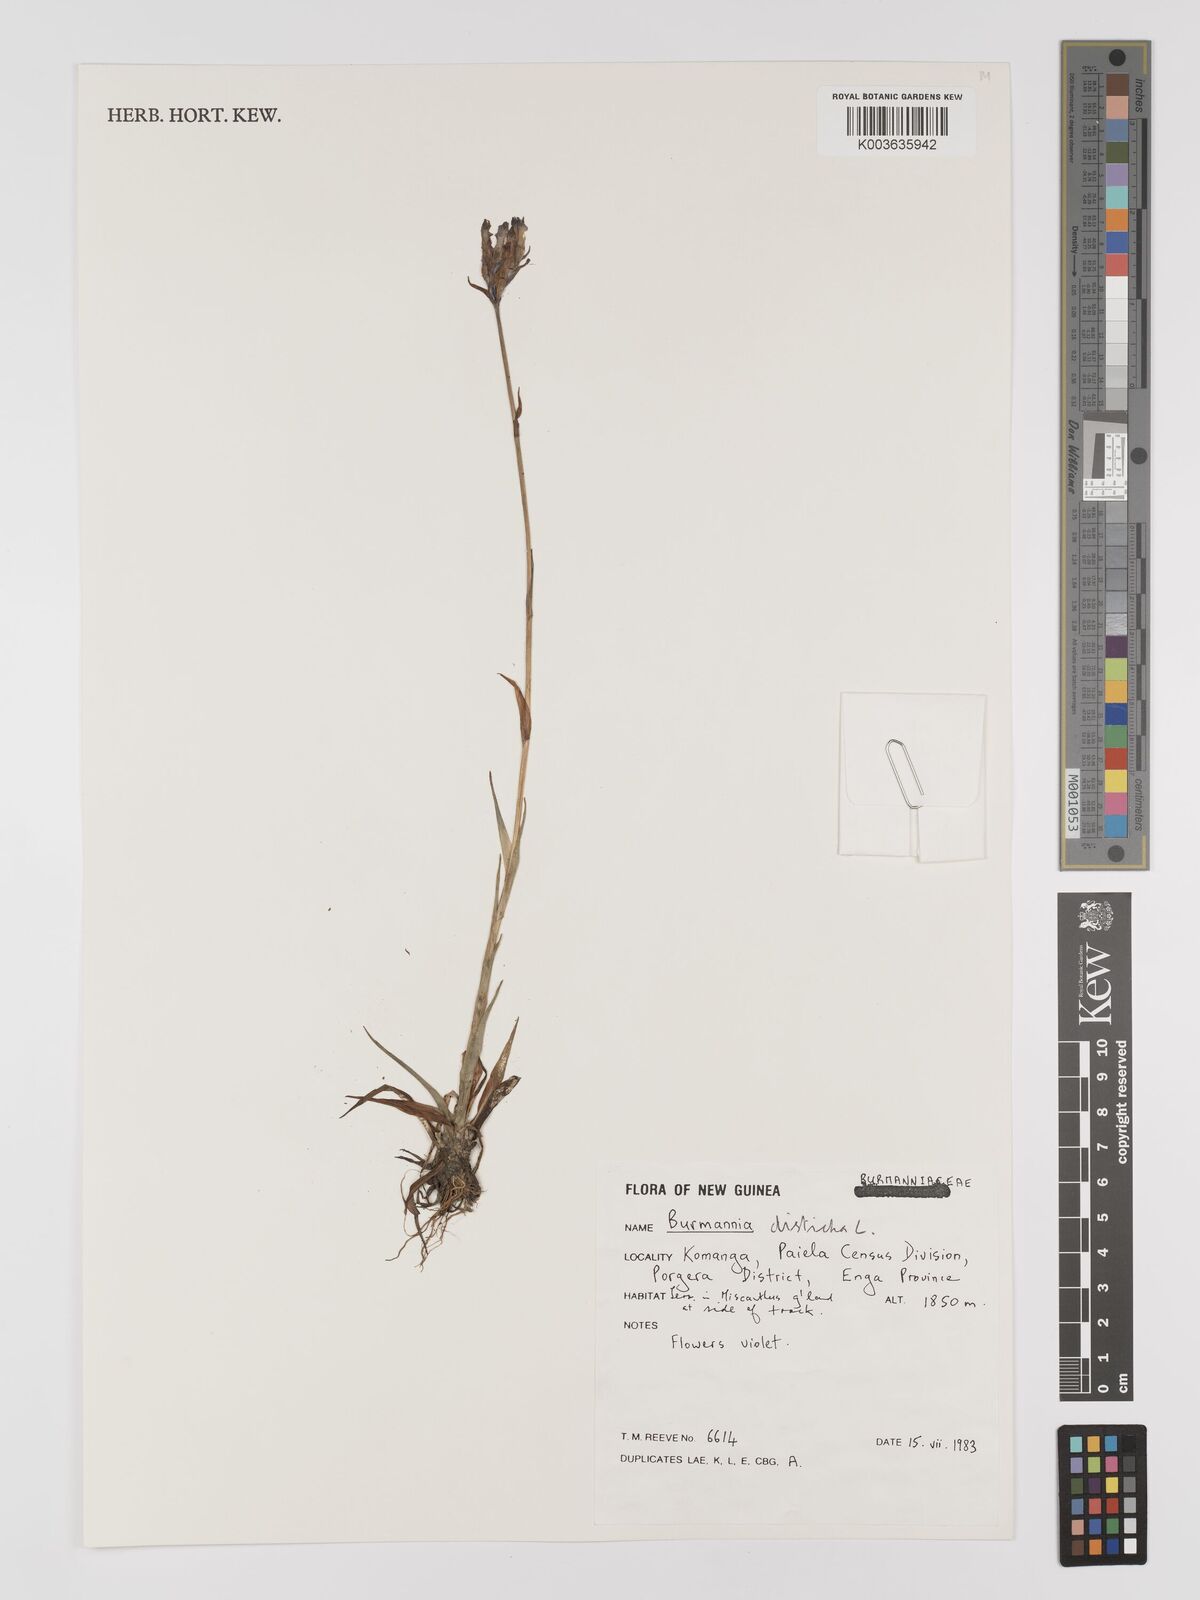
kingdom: Plantae
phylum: Tracheophyta
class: Liliopsida
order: Dioscoreales
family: Burmanniaceae
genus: Burmannia
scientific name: Burmannia disticha
